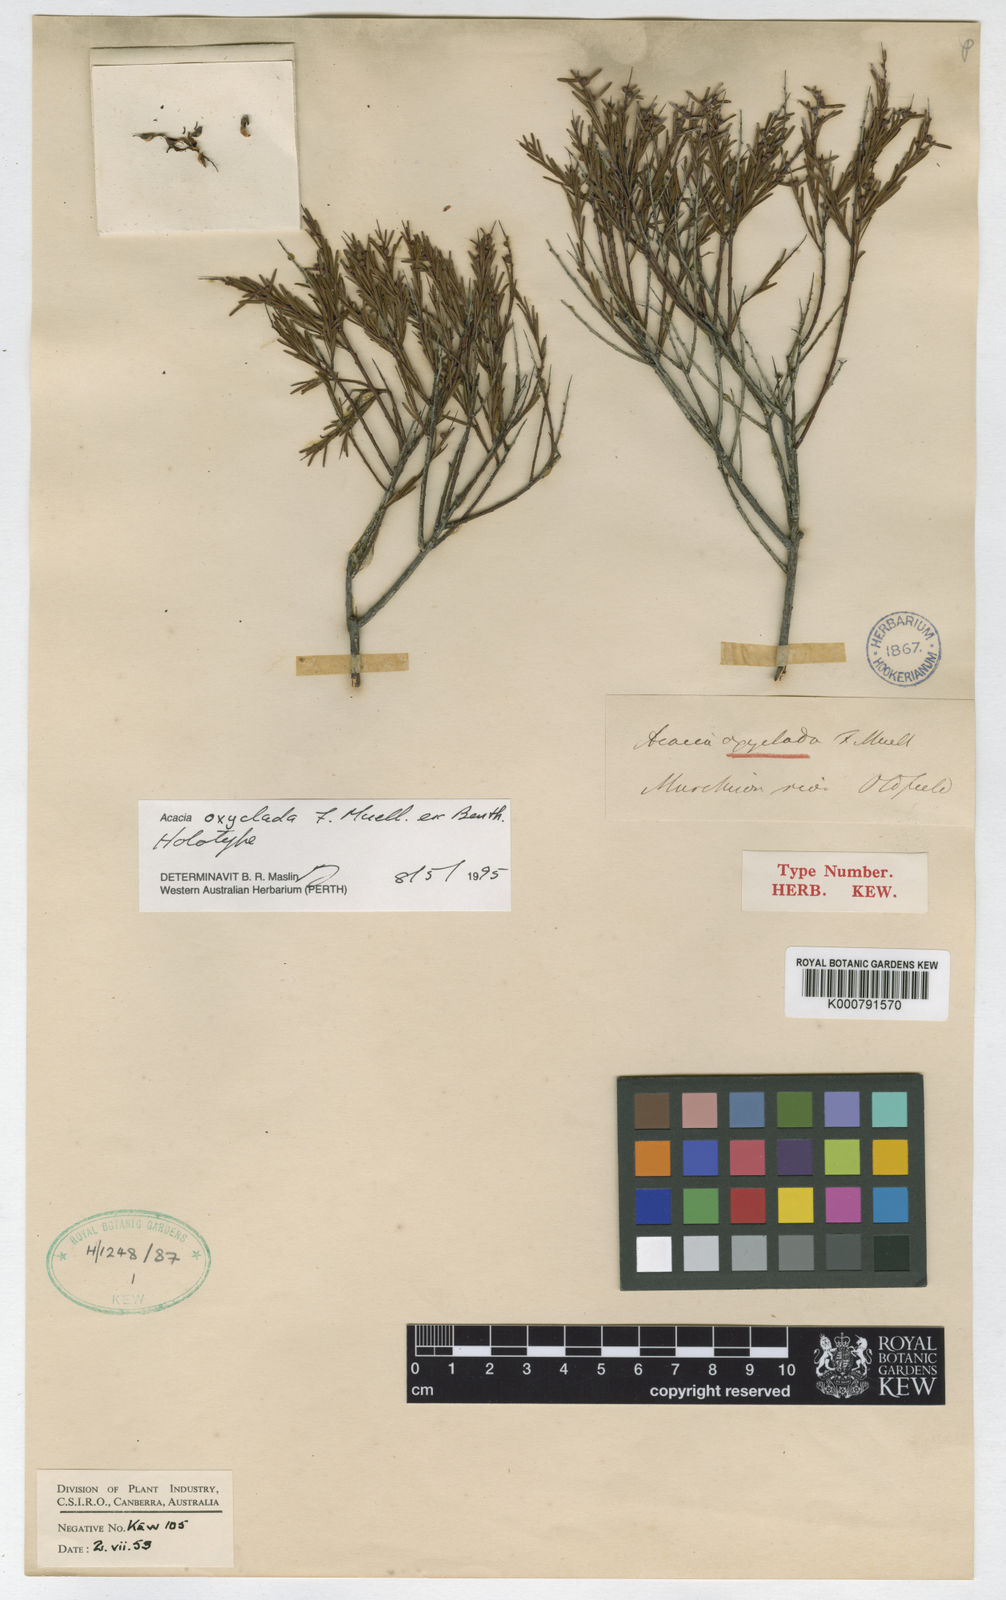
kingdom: Plantae
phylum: Tracheophyta
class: Magnoliopsida
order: Fabales
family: Fabaceae
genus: Acacia
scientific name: Acacia oxyclada
